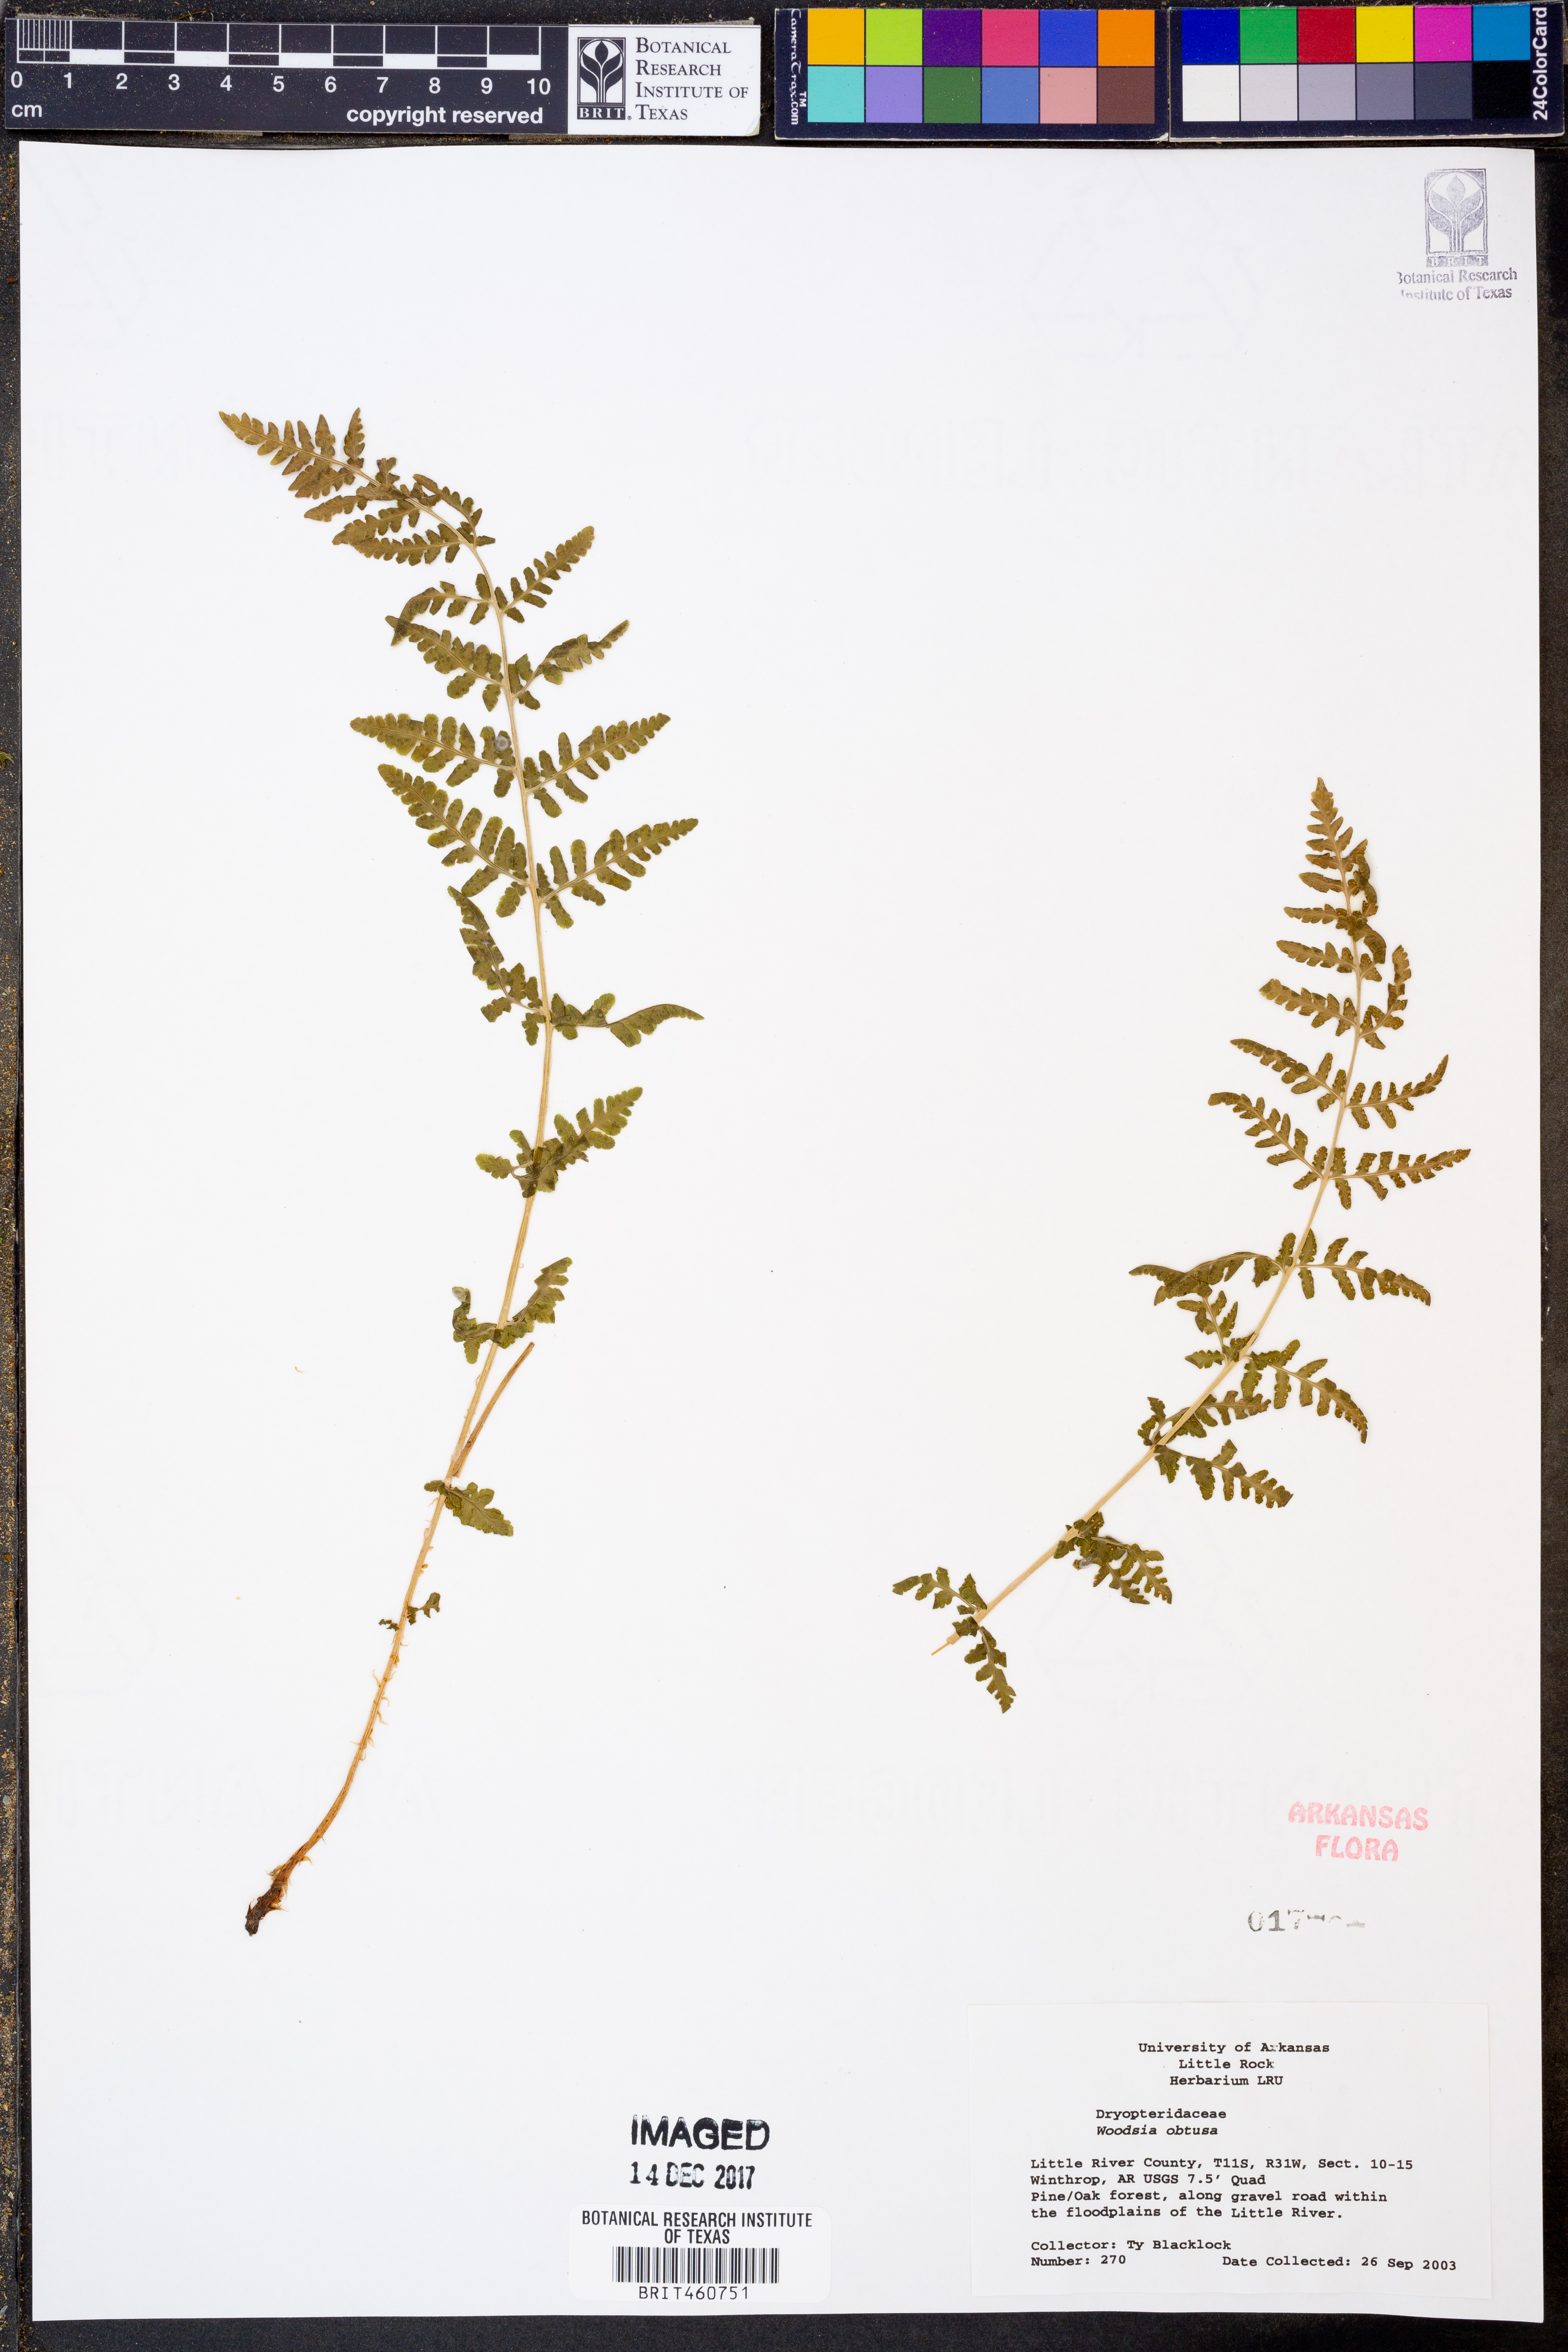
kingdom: Plantae
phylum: Tracheophyta
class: Polypodiopsida
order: Polypodiales
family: Woodsiaceae
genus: Physematium
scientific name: Physematium obtusum
